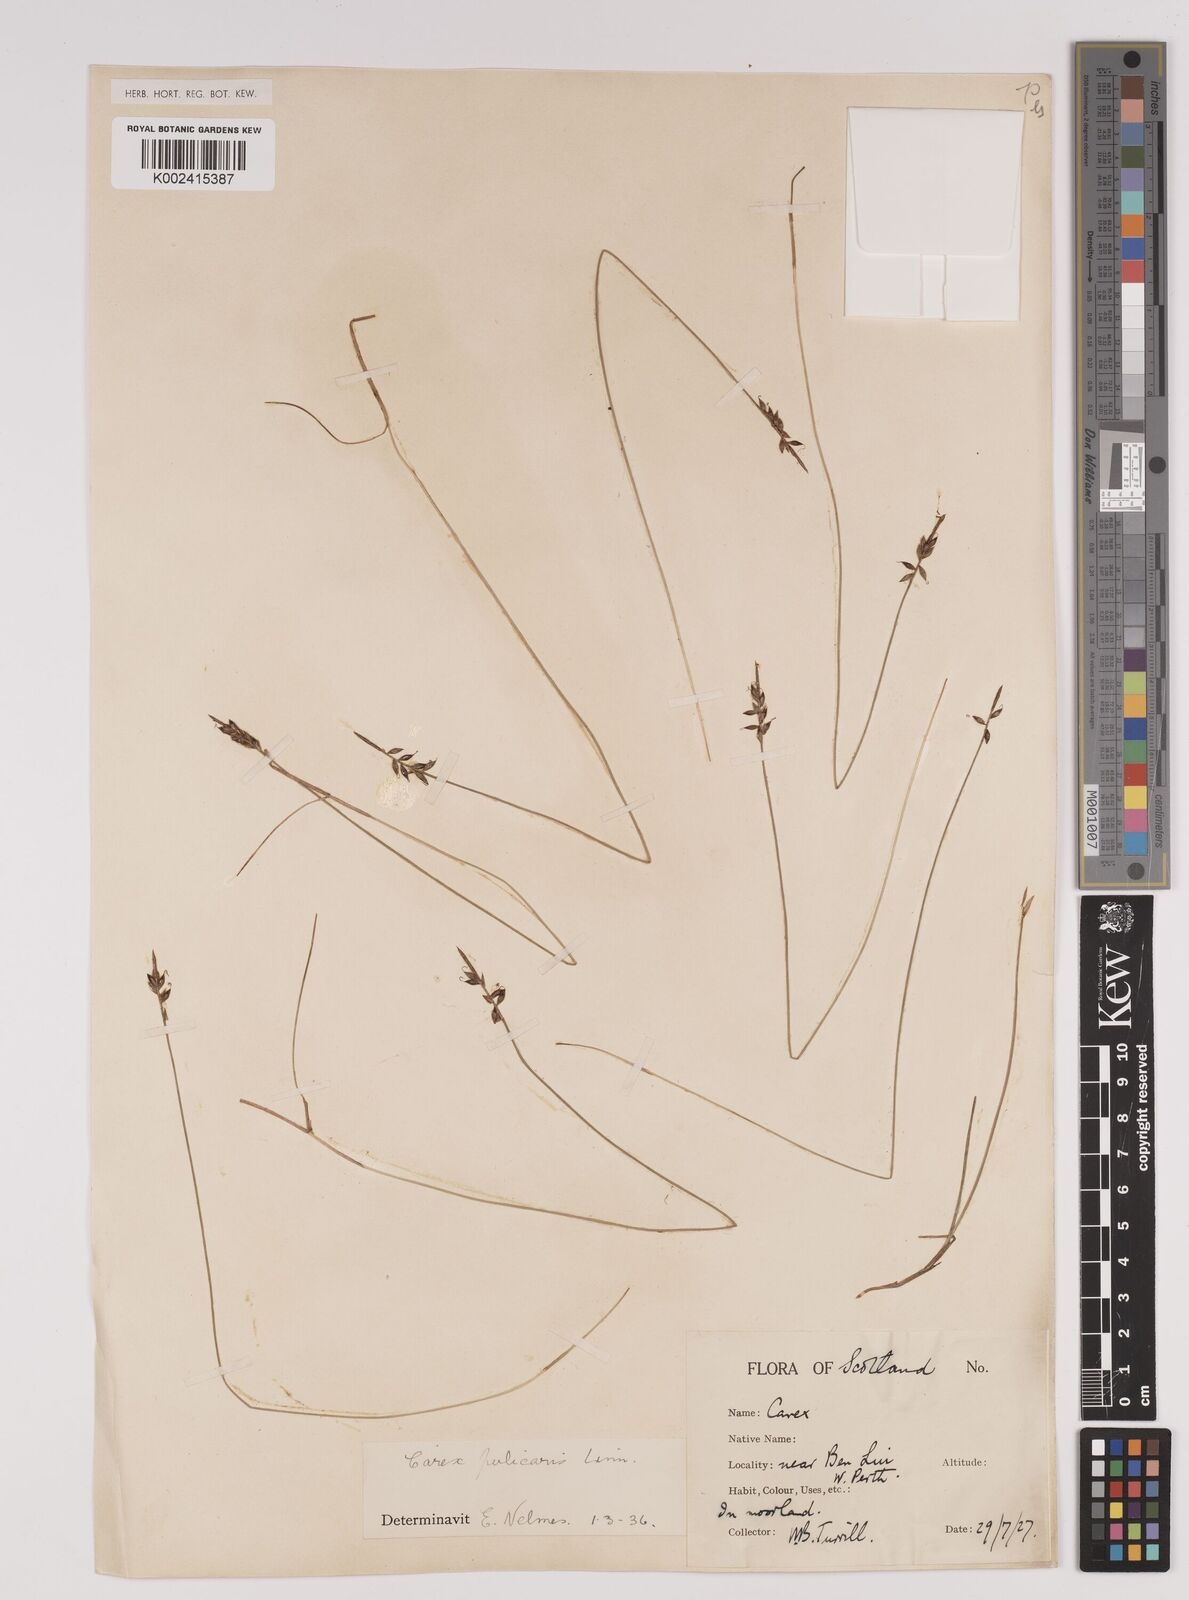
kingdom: Plantae
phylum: Tracheophyta
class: Liliopsida
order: Poales
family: Cyperaceae
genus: Carex
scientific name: Carex pulicaris
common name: Flea sedge
